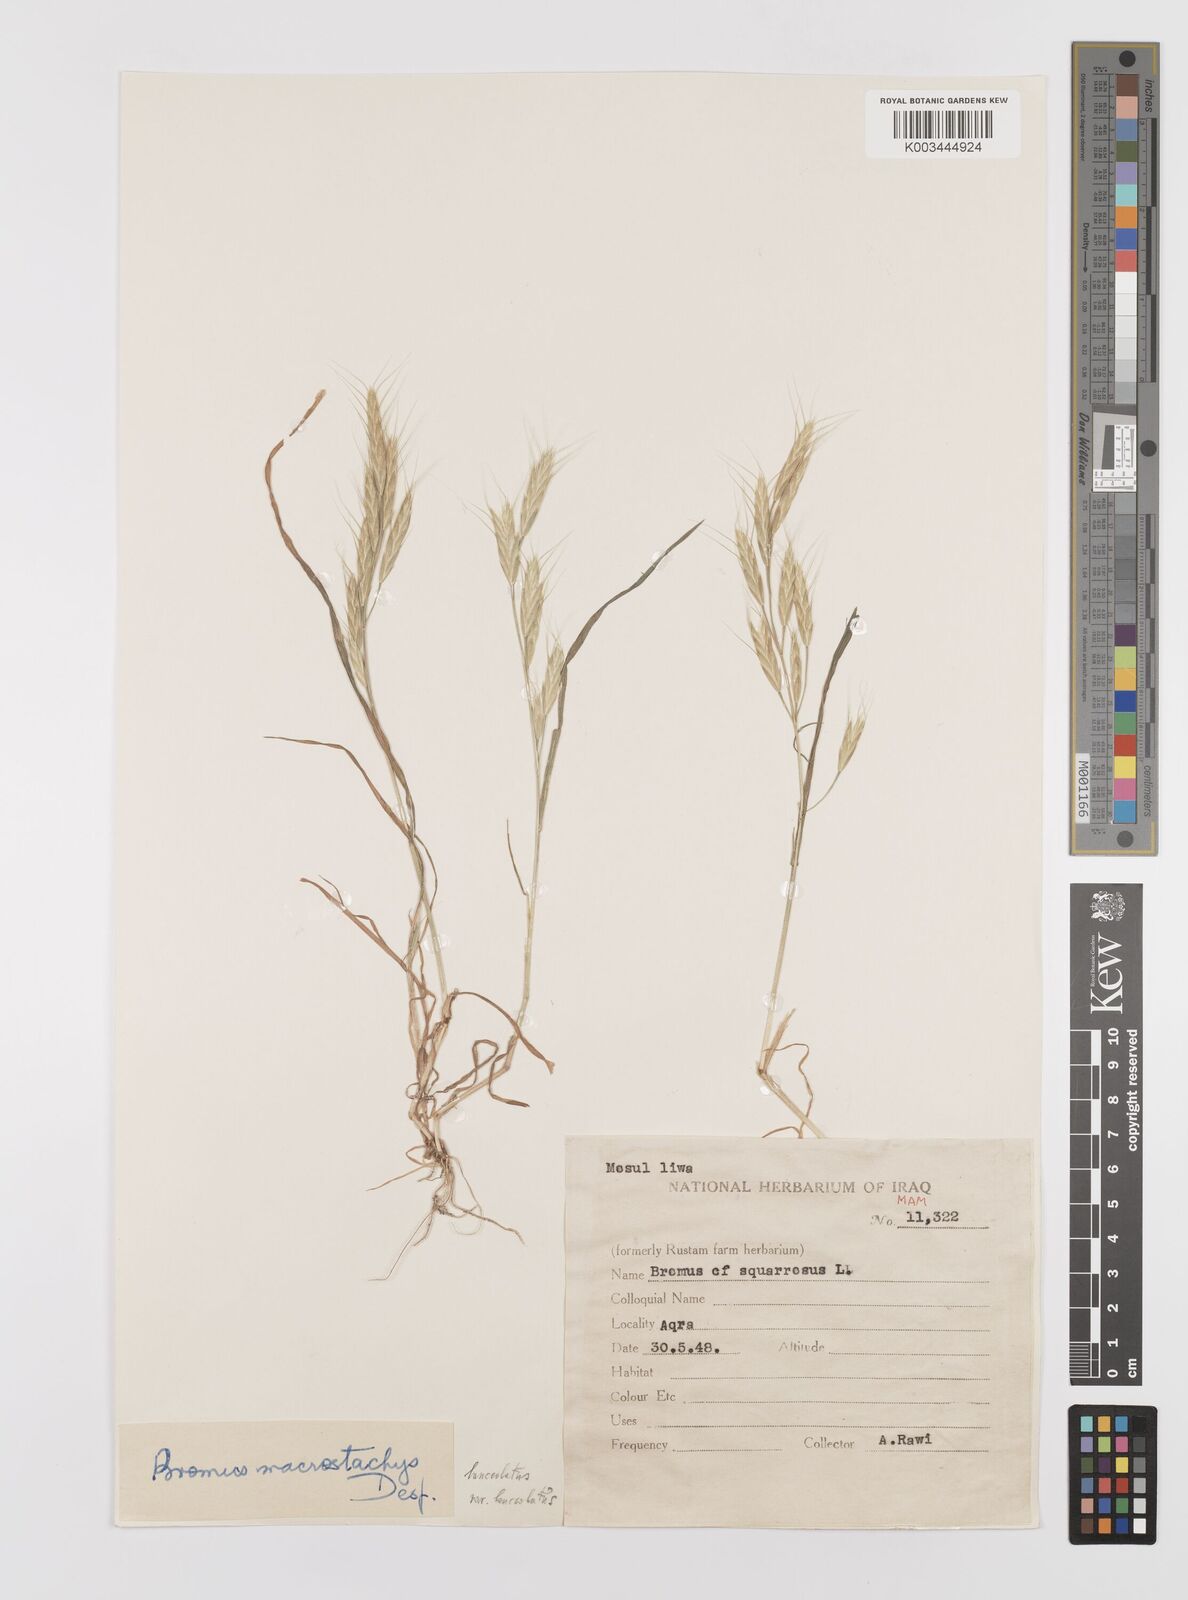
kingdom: Plantae
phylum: Tracheophyta
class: Liliopsida
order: Poales
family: Poaceae
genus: Bromus
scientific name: Bromus lanceolatus
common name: Mediterranean brome
